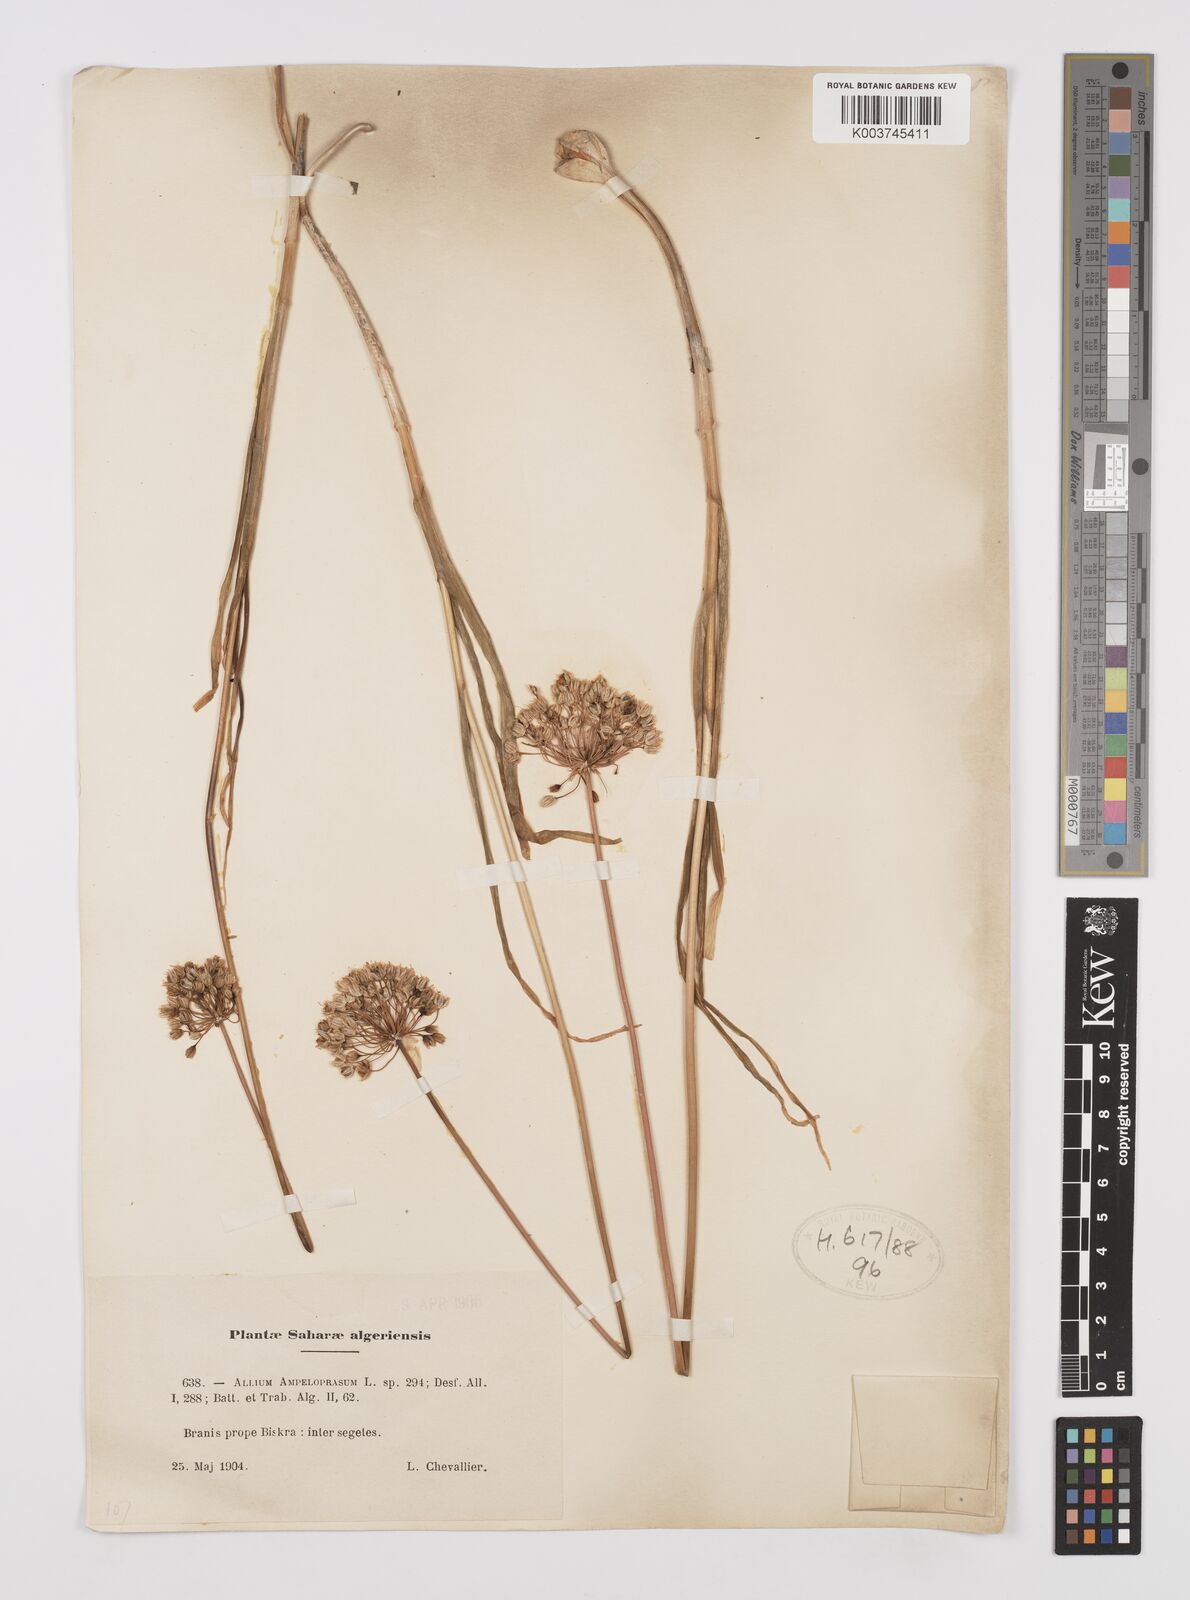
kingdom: Plantae
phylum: Tracheophyta
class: Liliopsida
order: Asparagales
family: Amaryllidaceae
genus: Allium
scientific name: Allium rotundum
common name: Sand leek
